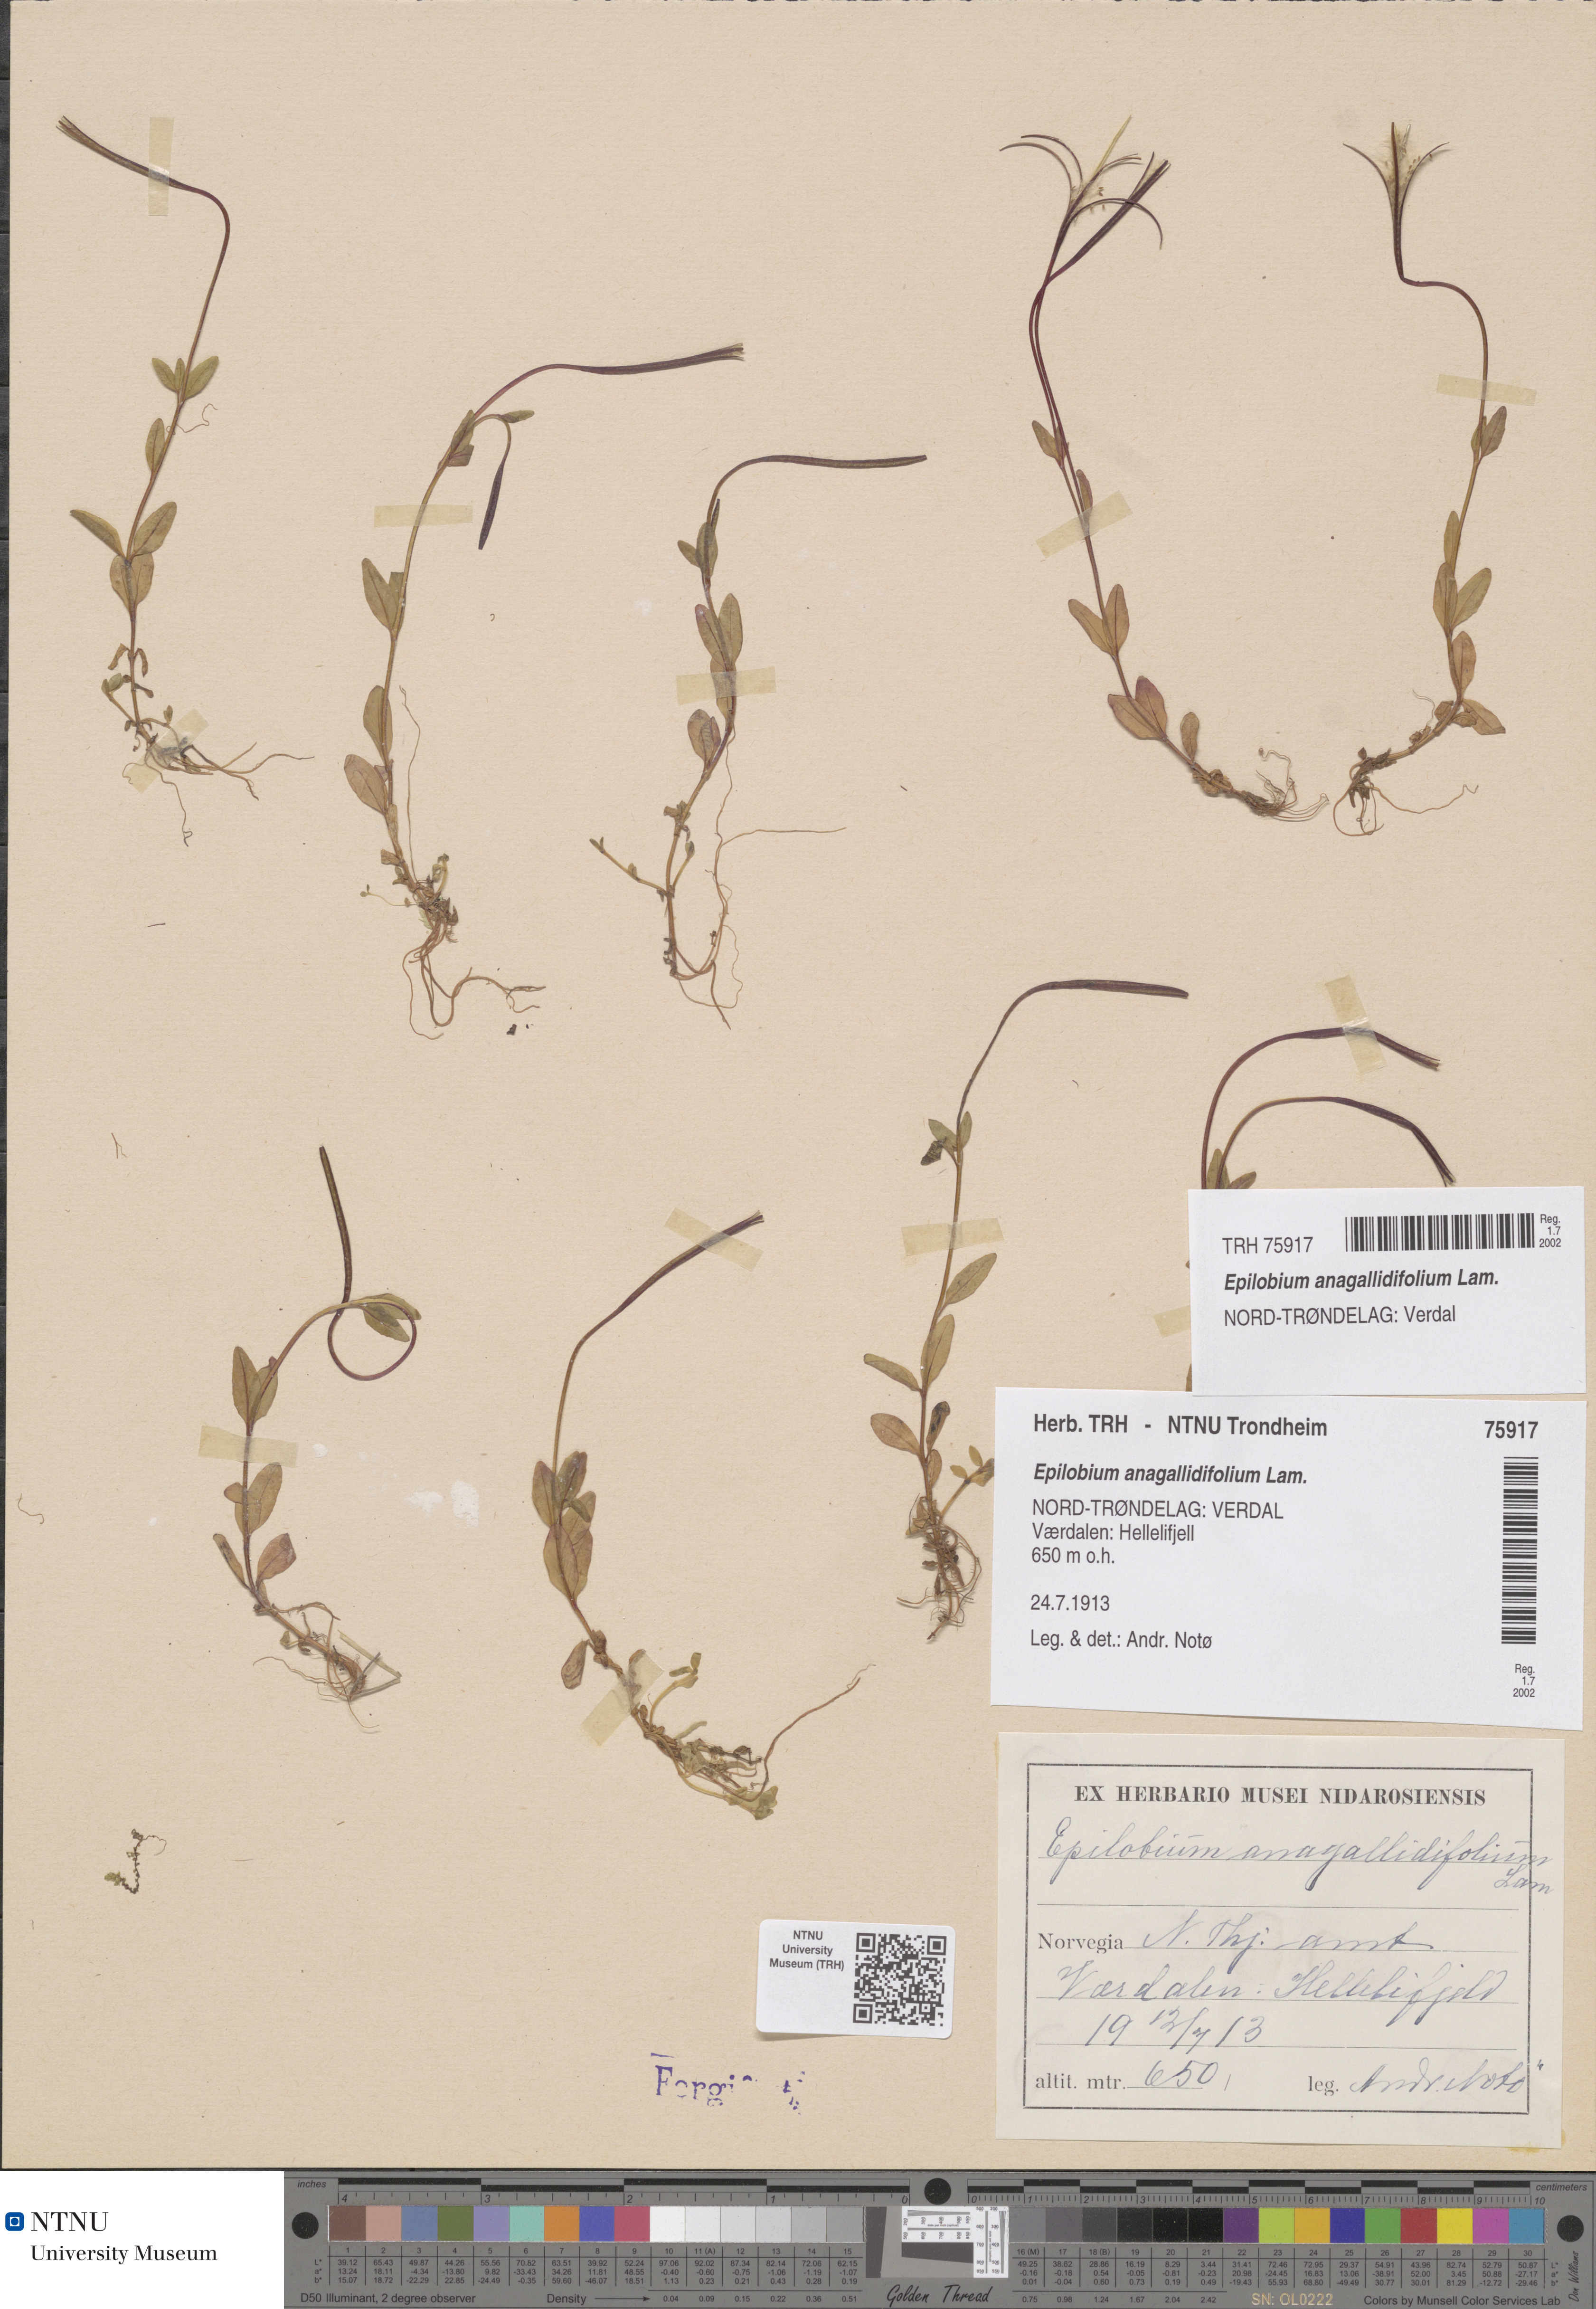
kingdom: Plantae
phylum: Tracheophyta
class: Magnoliopsida
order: Myrtales
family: Onagraceae
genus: Epilobium
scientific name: Epilobium anagallidifolium
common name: Alpine willowherb
